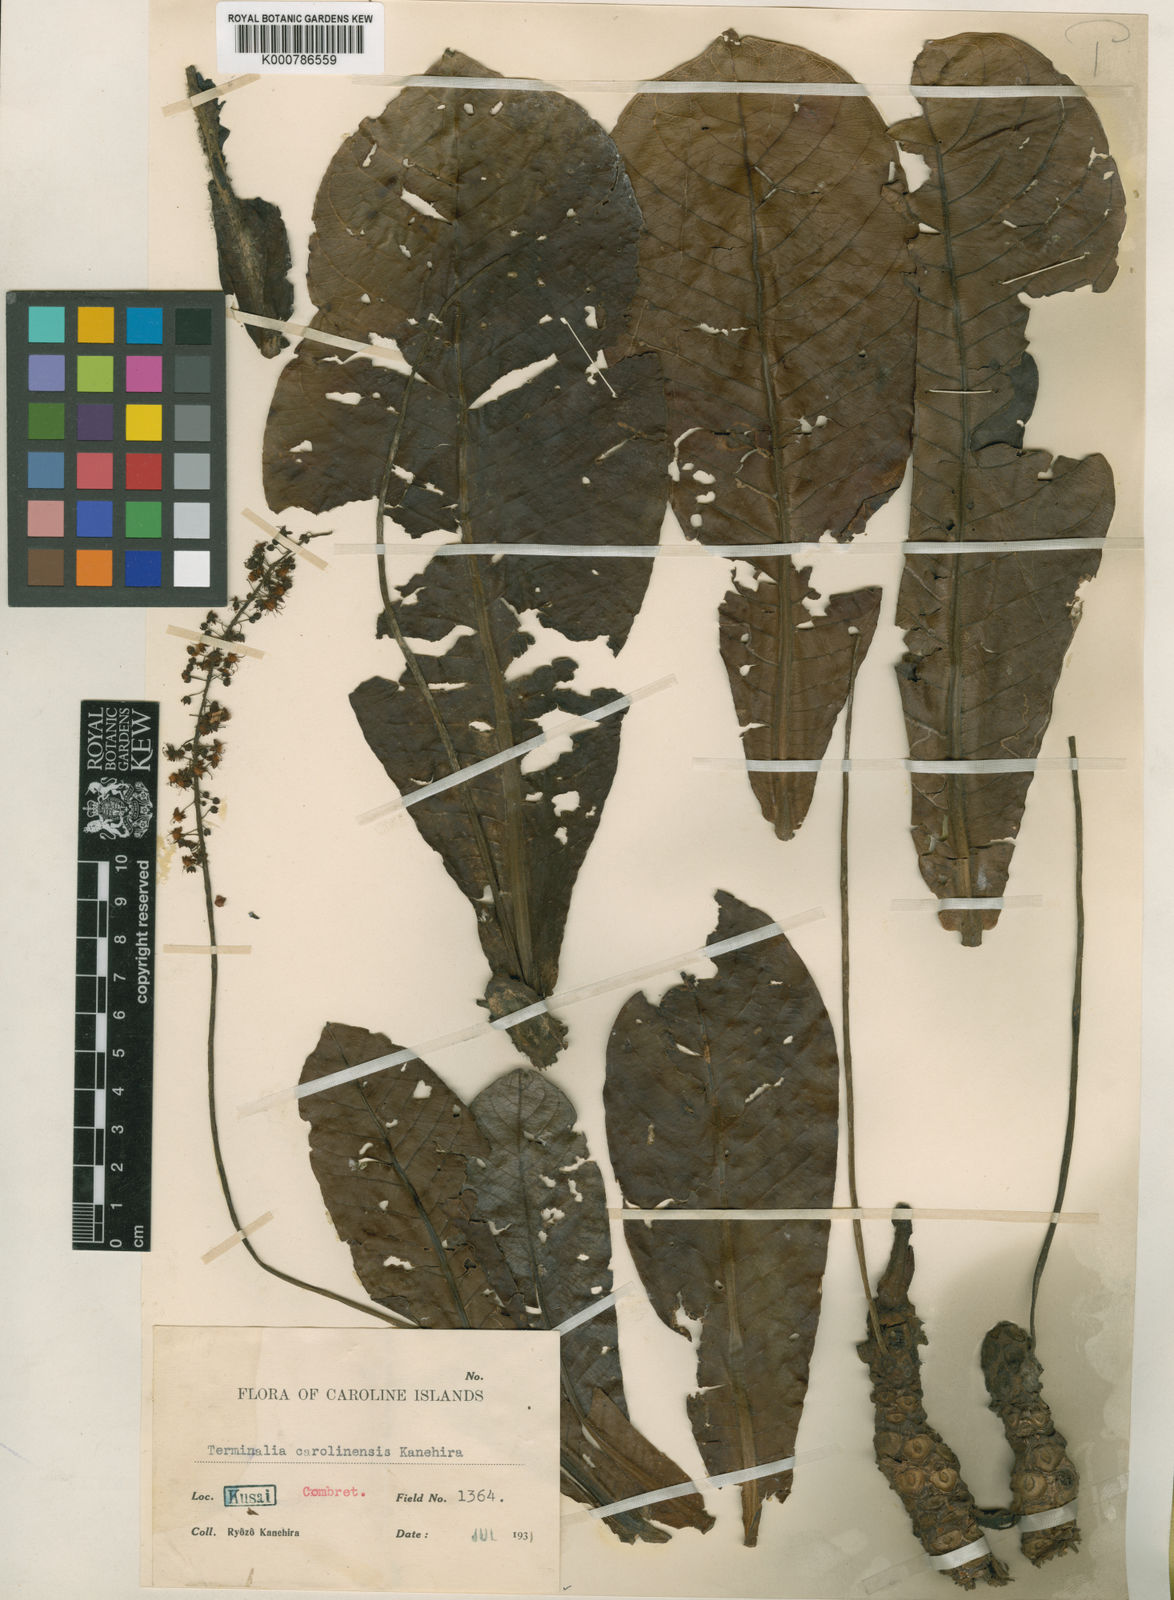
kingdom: Plantae
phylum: Tracheophyta
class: Magnoliopsida
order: Myrtales
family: Combretaceae
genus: Terminalia
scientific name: Terminalia carolinensis
